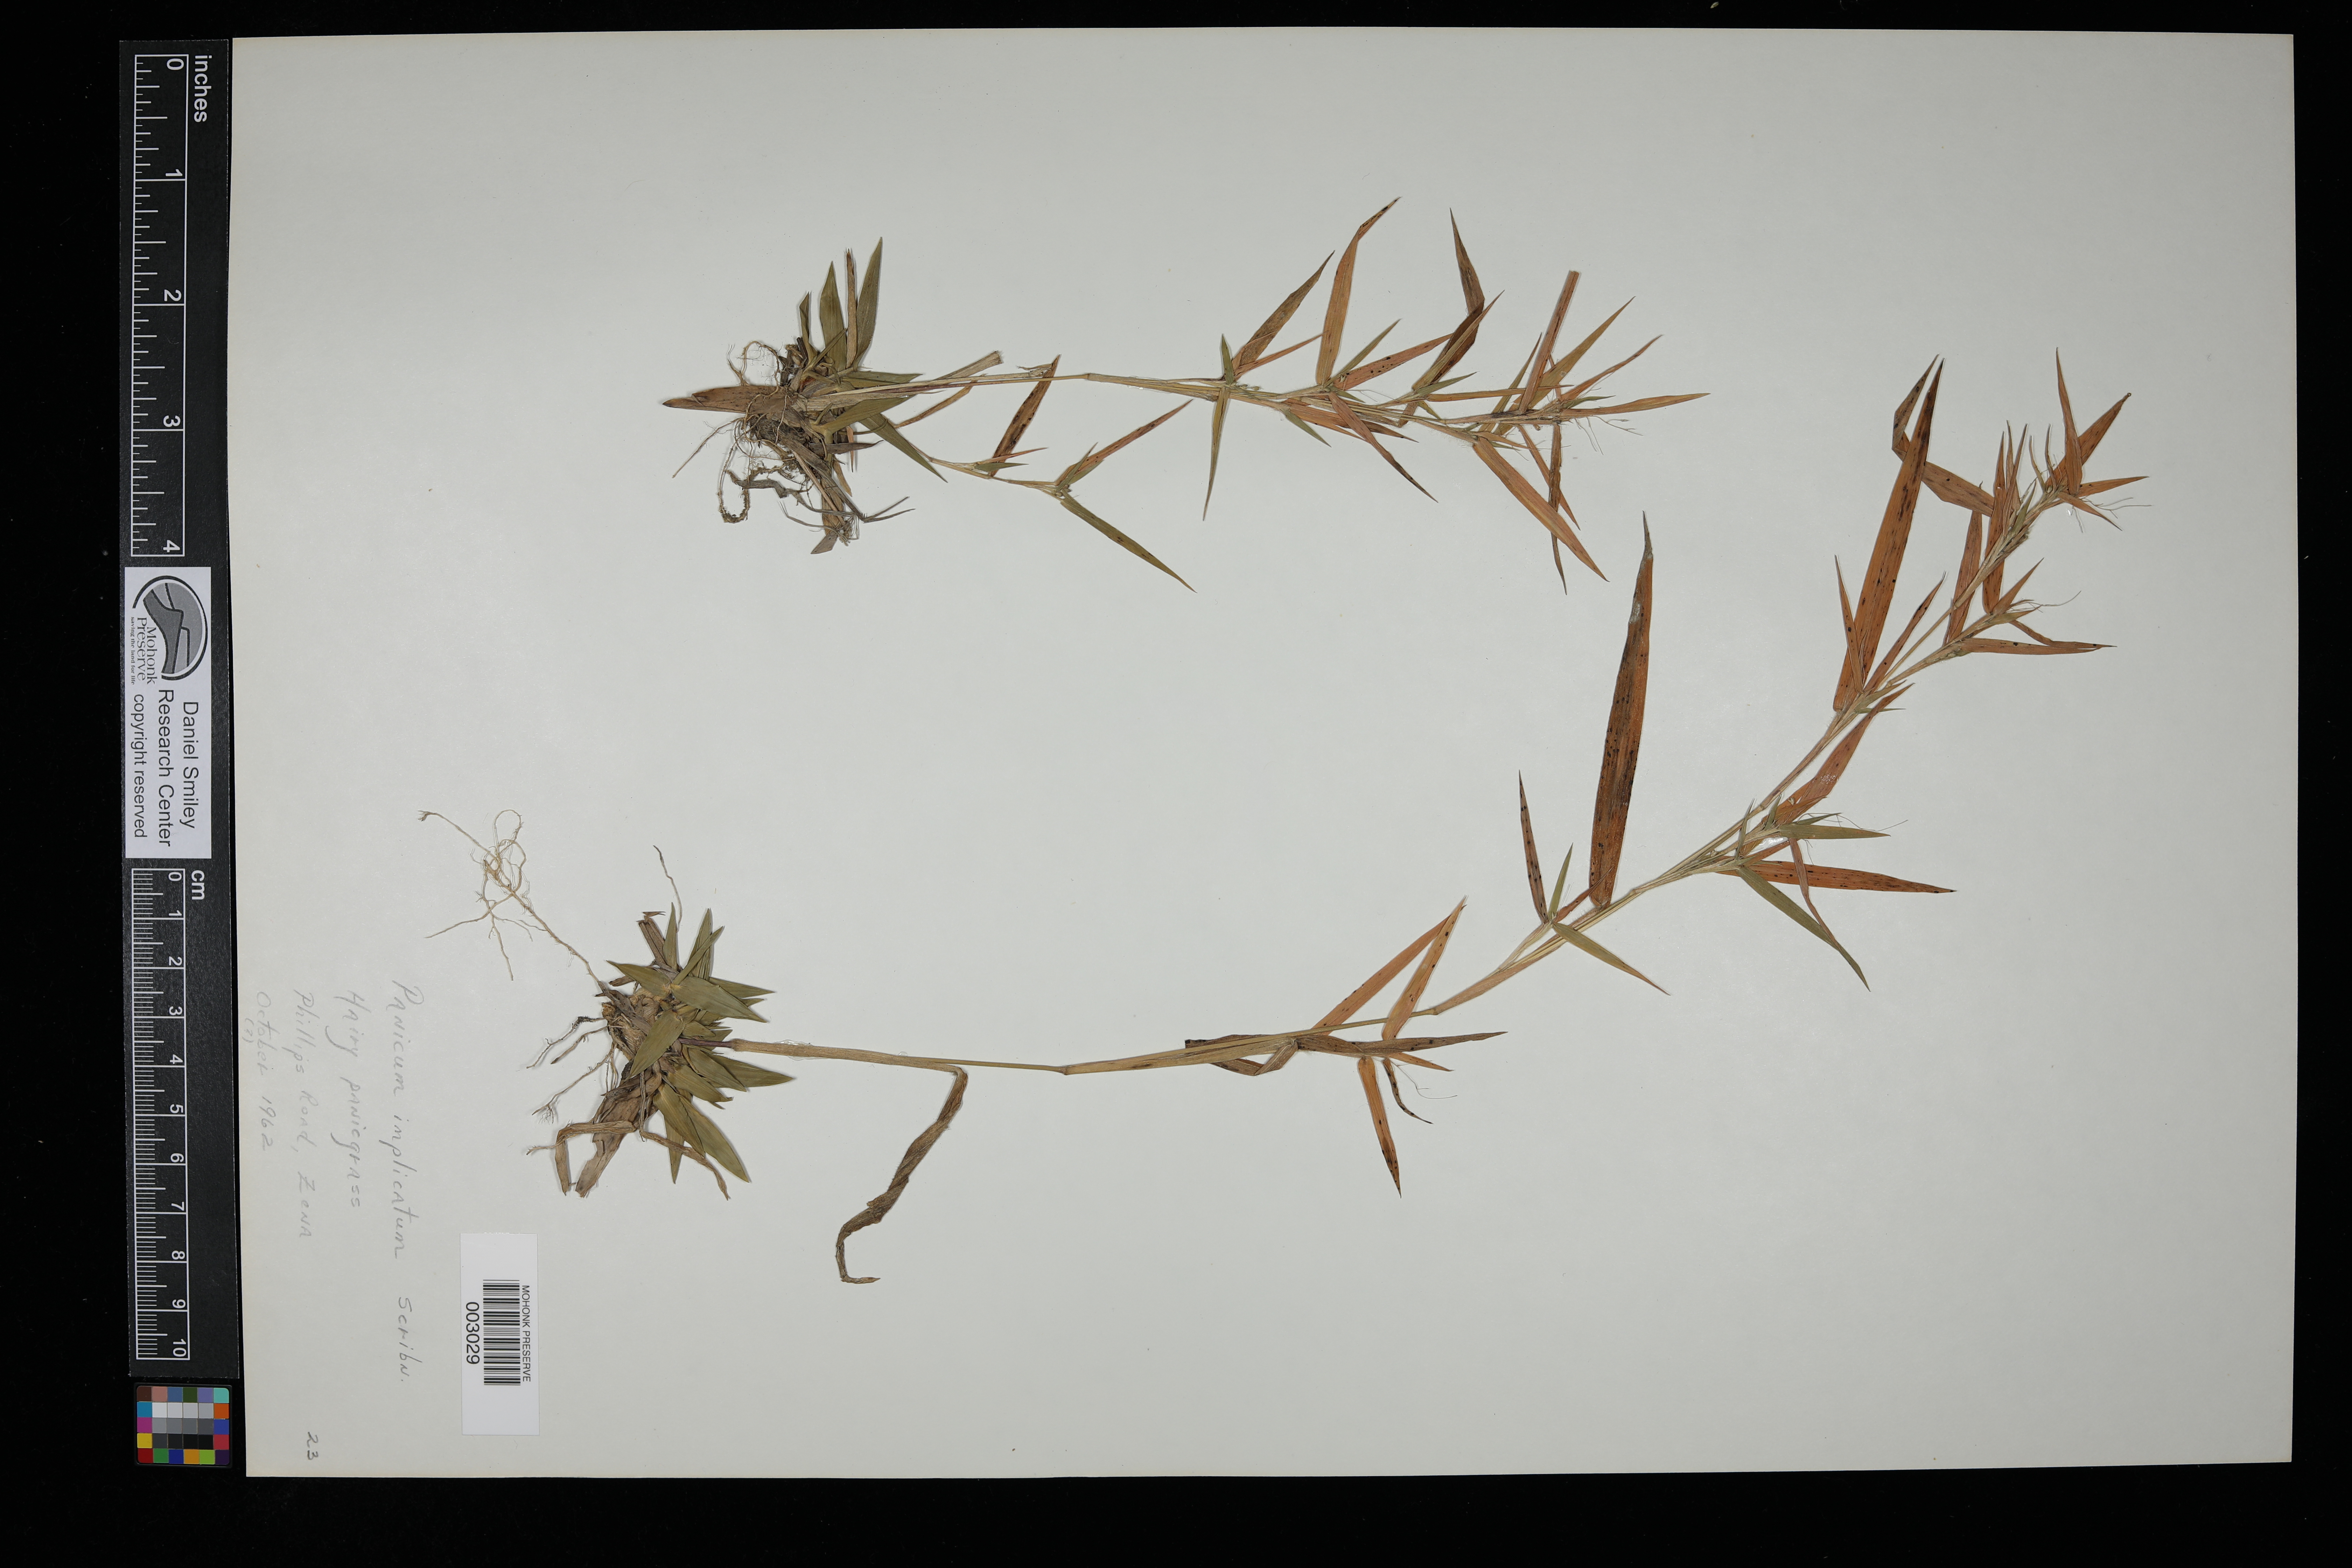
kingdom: Plantae
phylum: Tracheophyta
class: Liliopsida
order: Poales
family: Poaceae
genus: Dichanthelium
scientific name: Dichanthelium acuminatum
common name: Hairy panic grass
